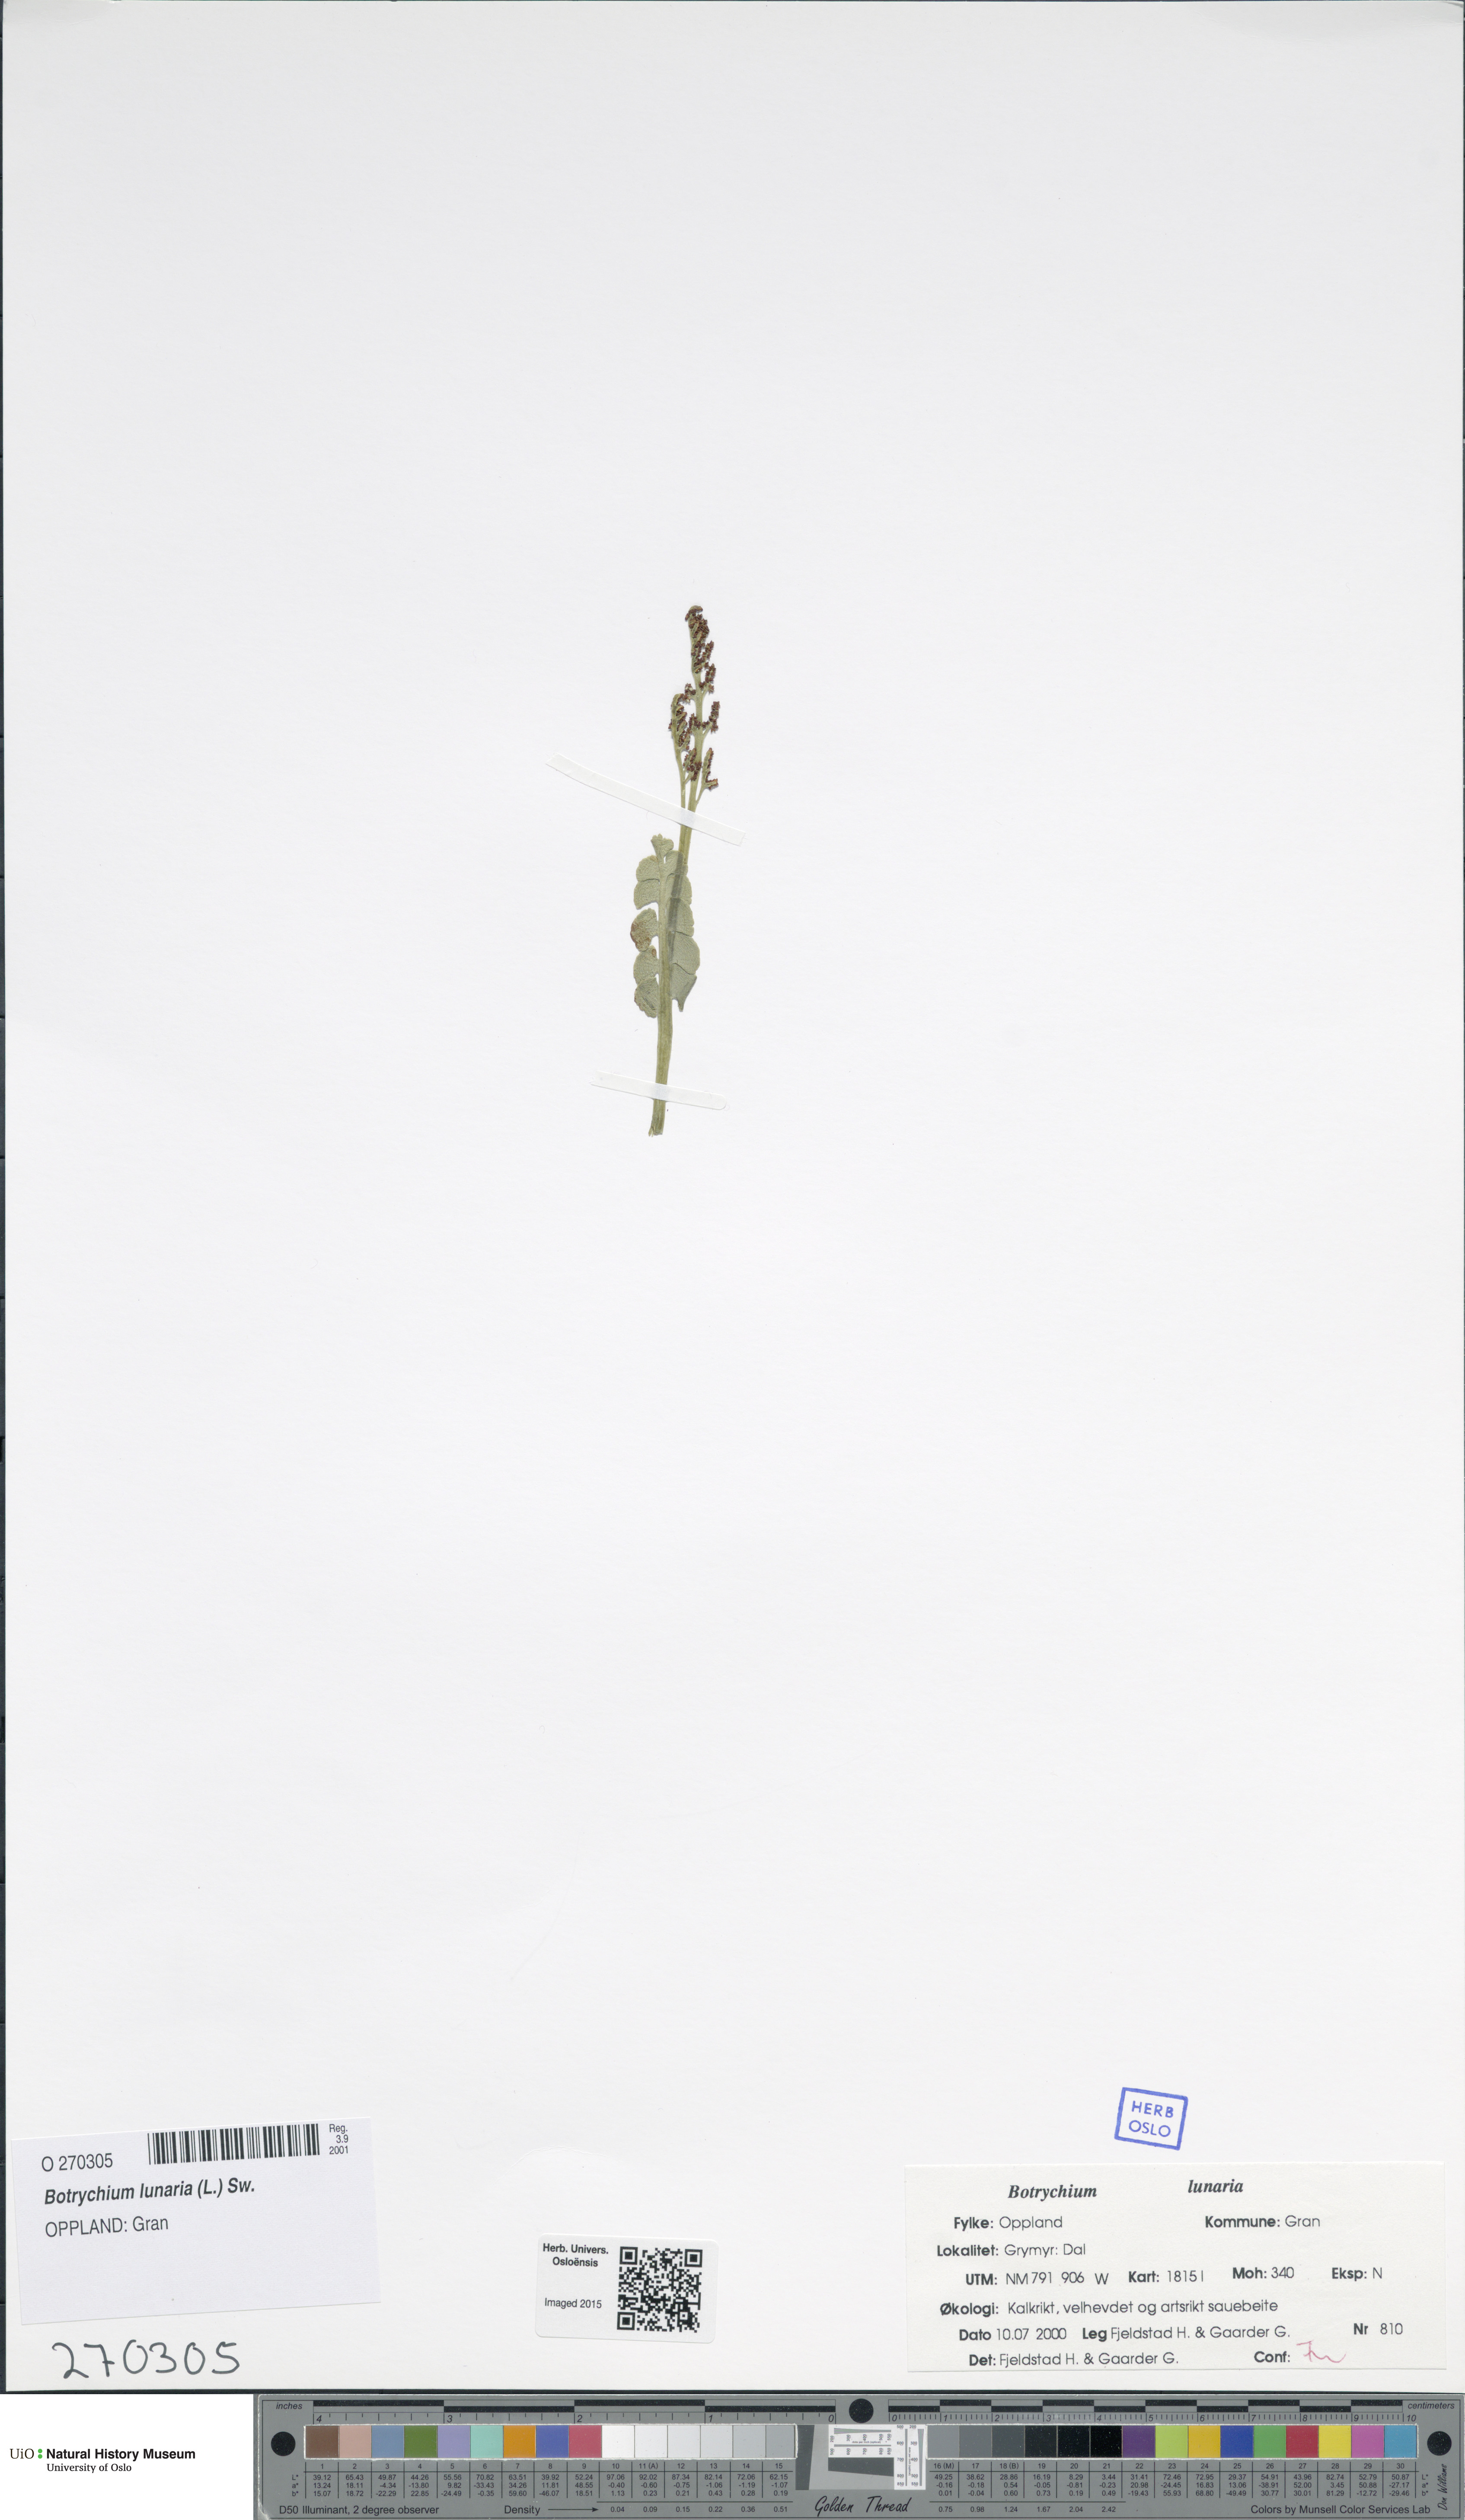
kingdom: Plantae
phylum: Tracheophyta
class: Polypodiopsida
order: Ophioglossales
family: Ophioglossaceae
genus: Botrychium
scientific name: Botrychium lunaria
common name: Moonwort
